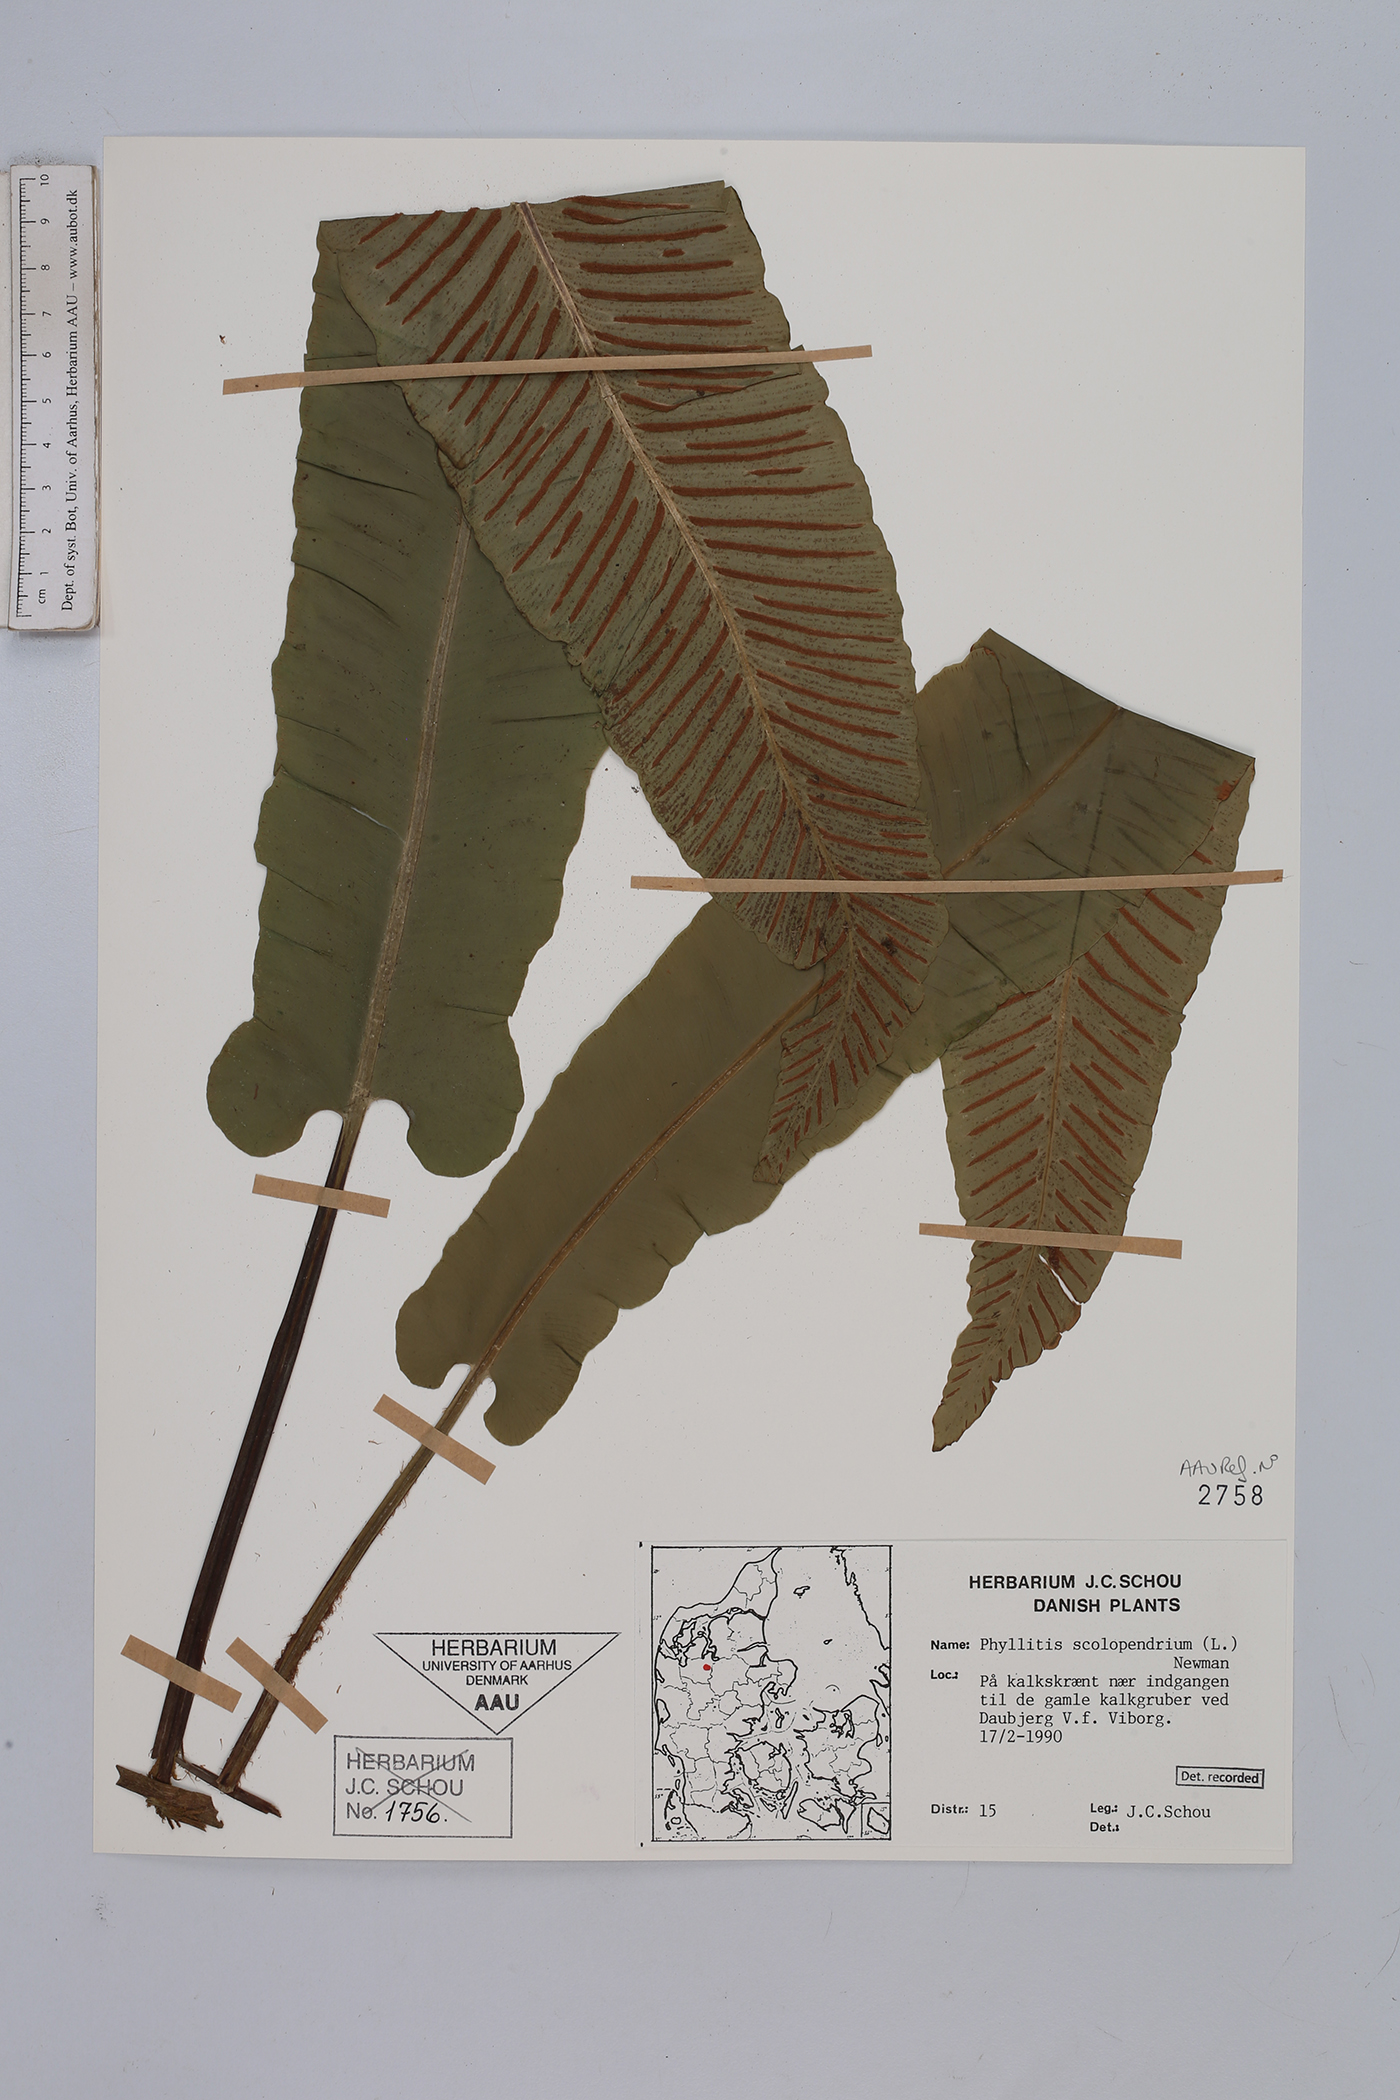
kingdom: Plantae
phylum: Tracheophyta
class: Polypodiopsida
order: Polypodiales
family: Aspleniaceae
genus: Asplenium
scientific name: Asplenium scolopendrium
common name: Hart's-tongue fern
